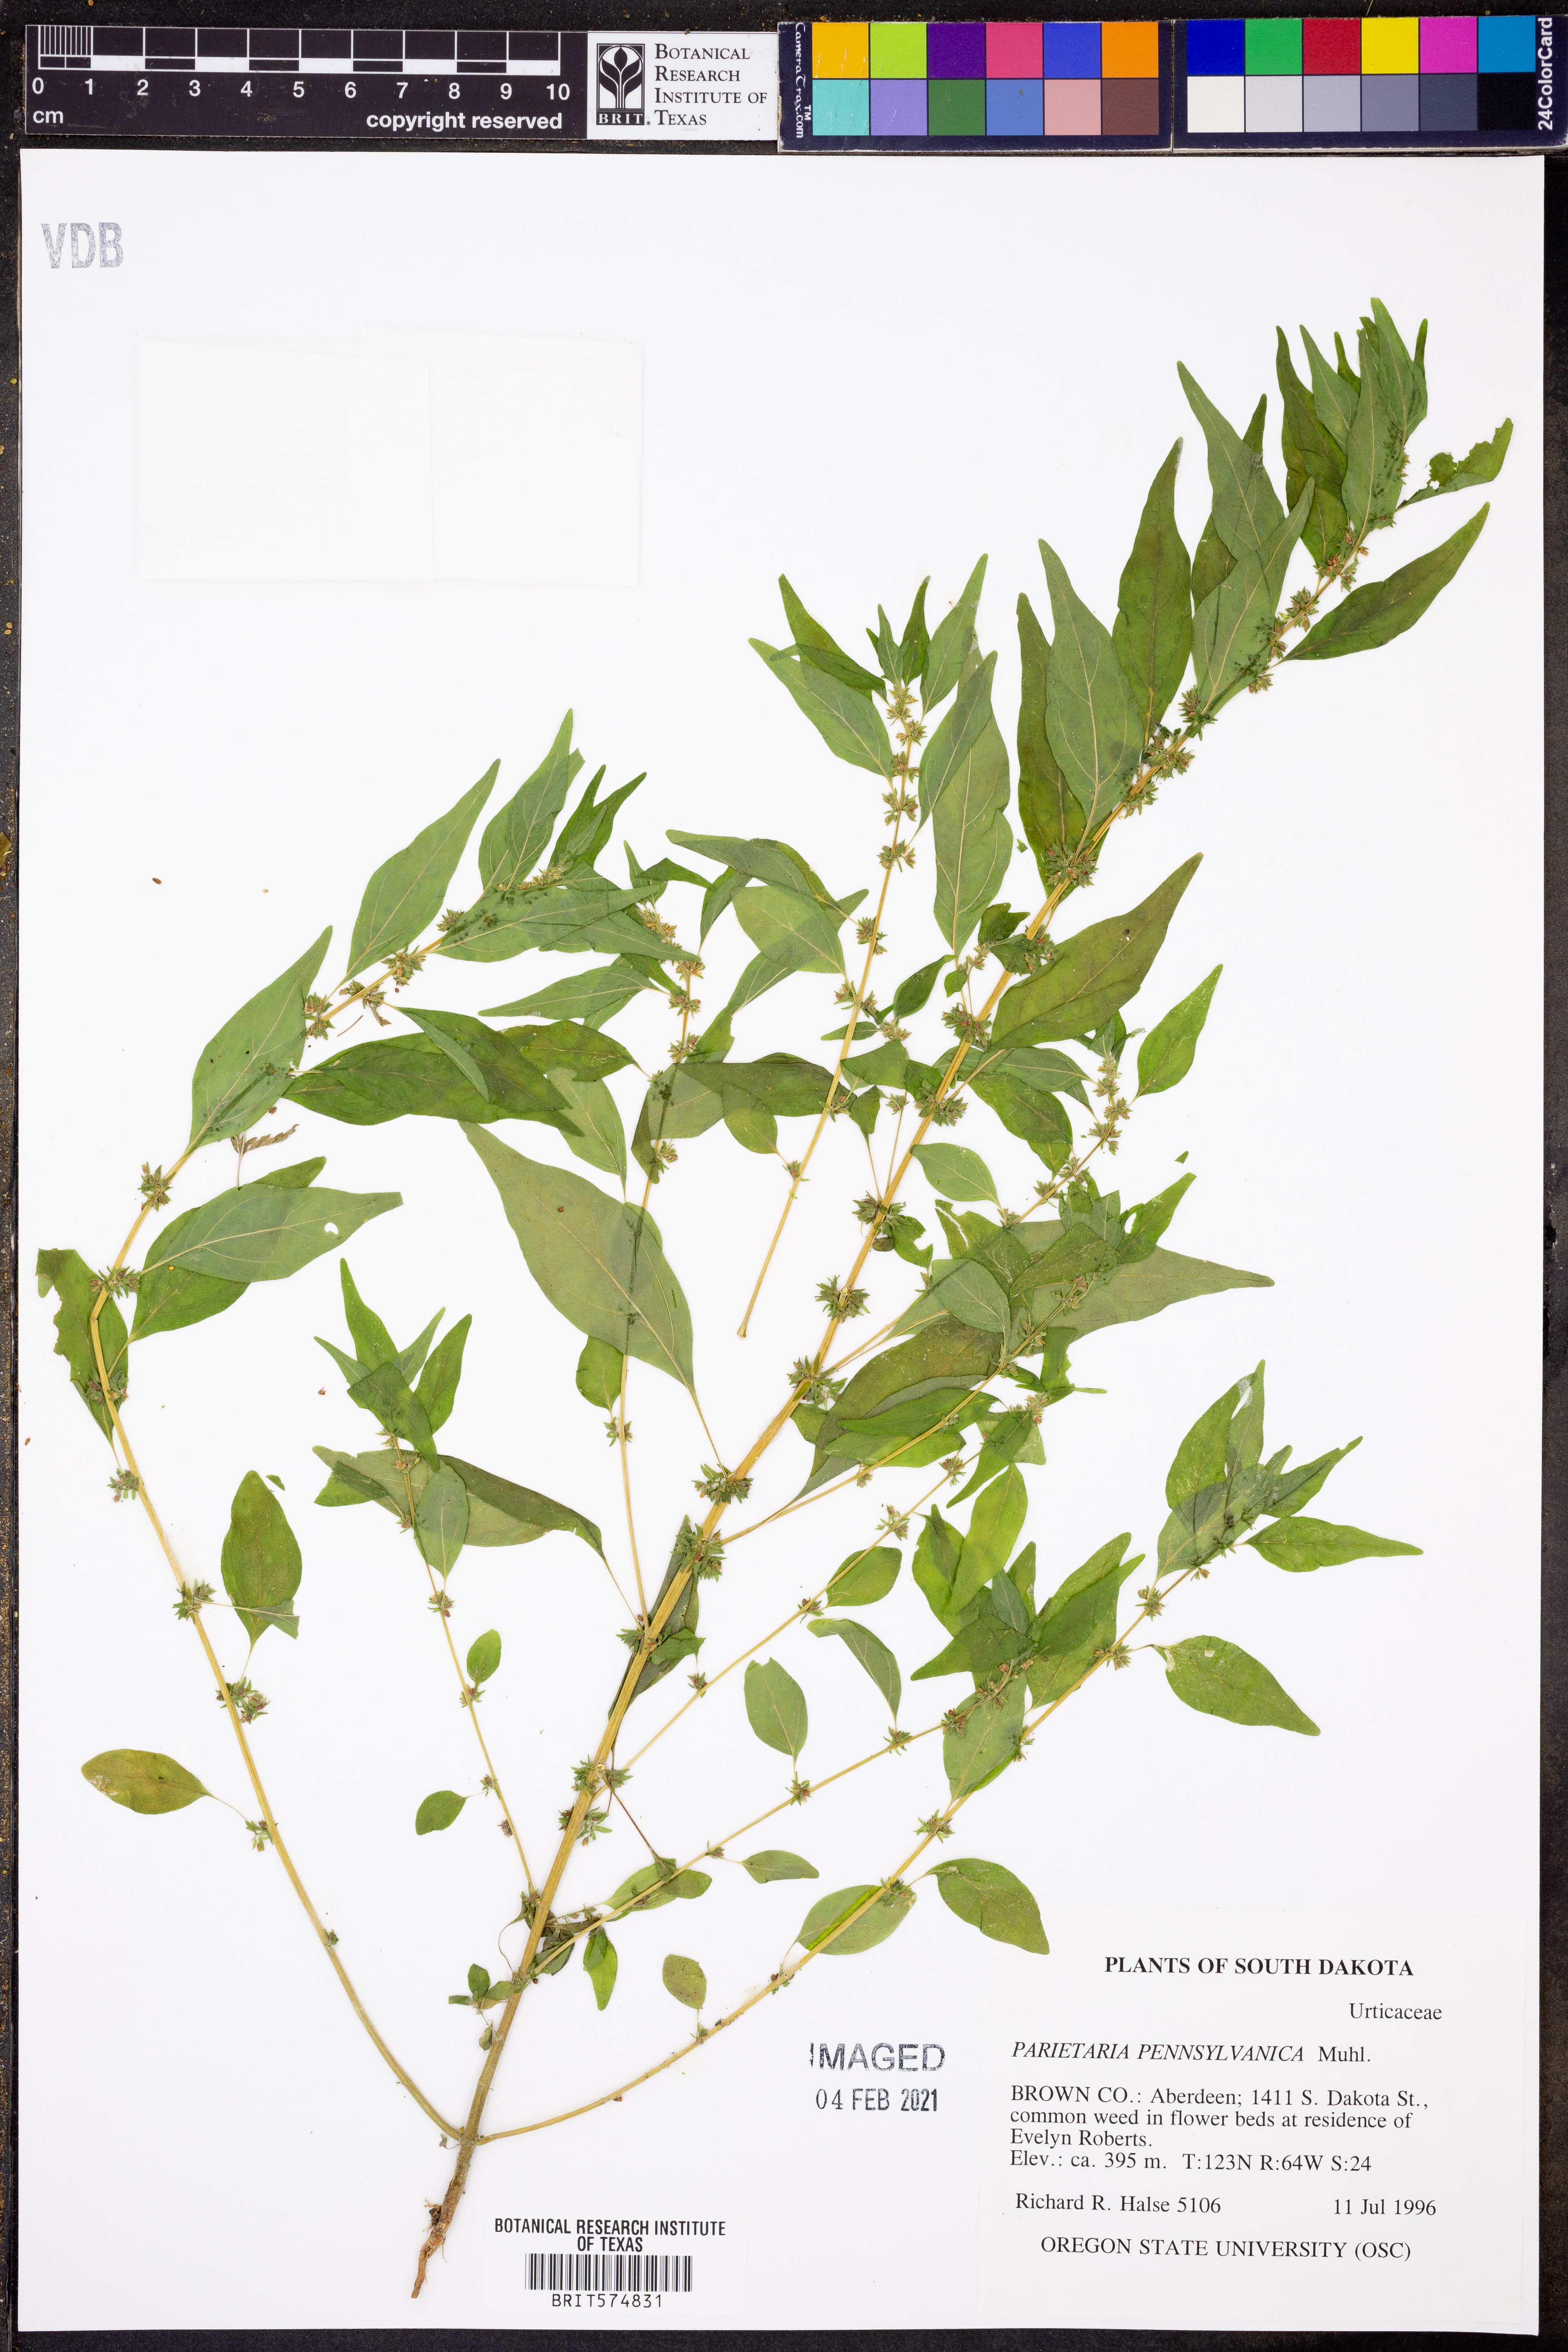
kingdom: Plantae
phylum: Tracheophyta
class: Magnoliopsida
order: Rosales
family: Urticaceae
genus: Parietaria
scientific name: Parietaria pensylvanica
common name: Pennsylvania pellitory
